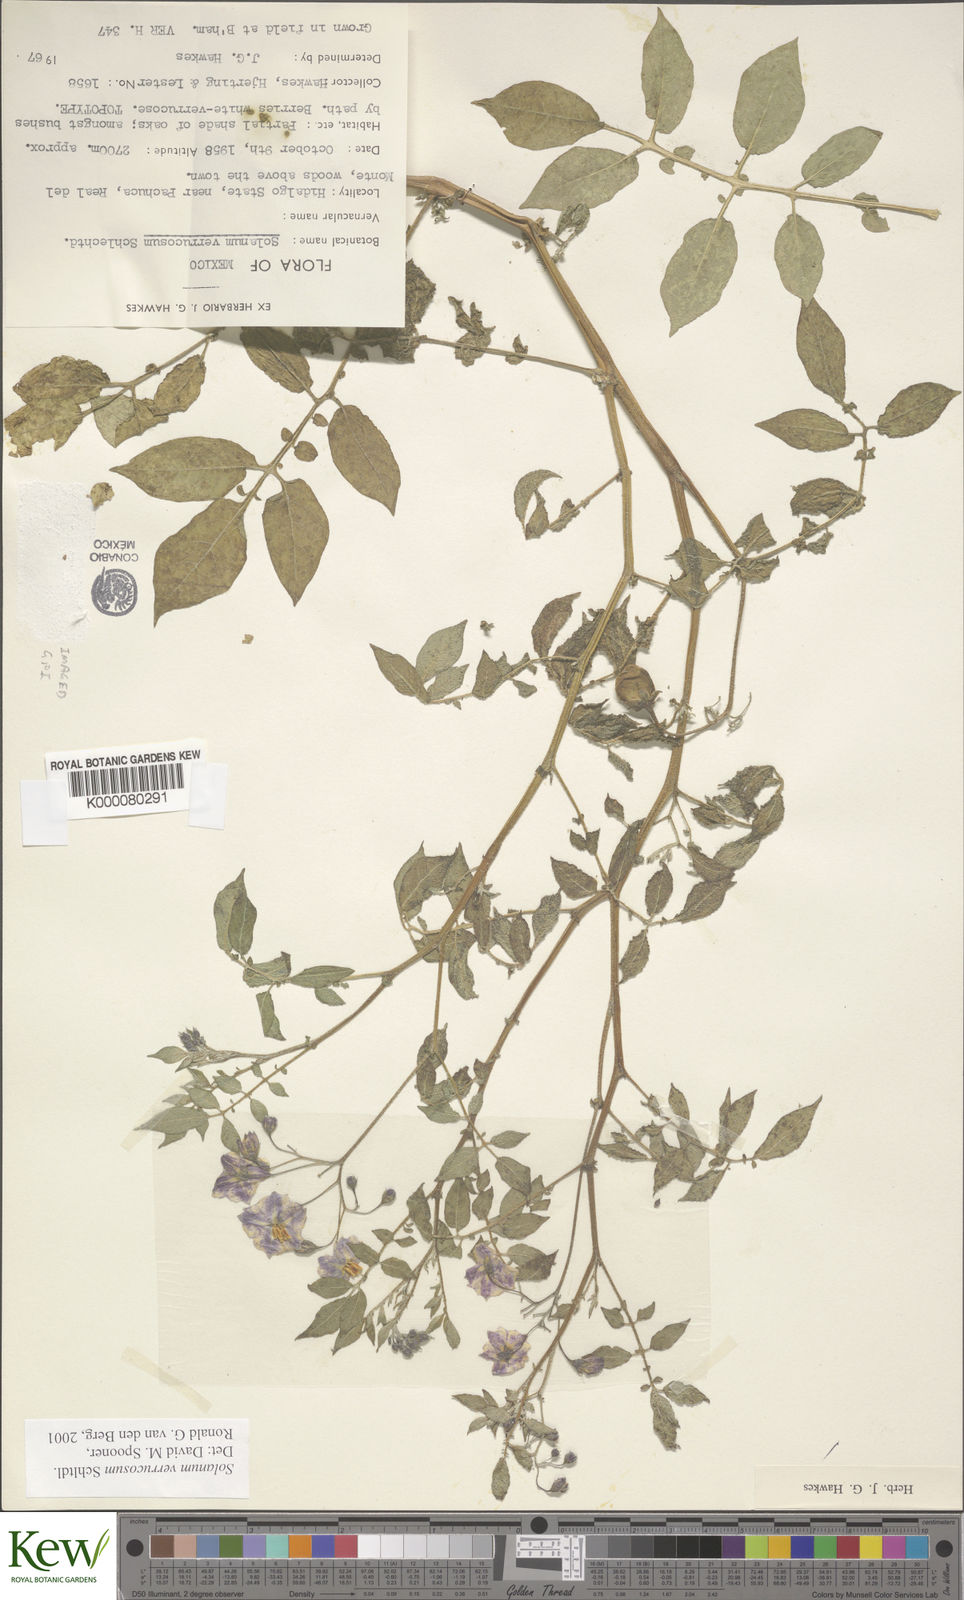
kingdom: Plantae
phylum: Tracheophyta
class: Magnoliopsida
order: Solanales
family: Solanaceae
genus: Solanum
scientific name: Solanum verrucosum
